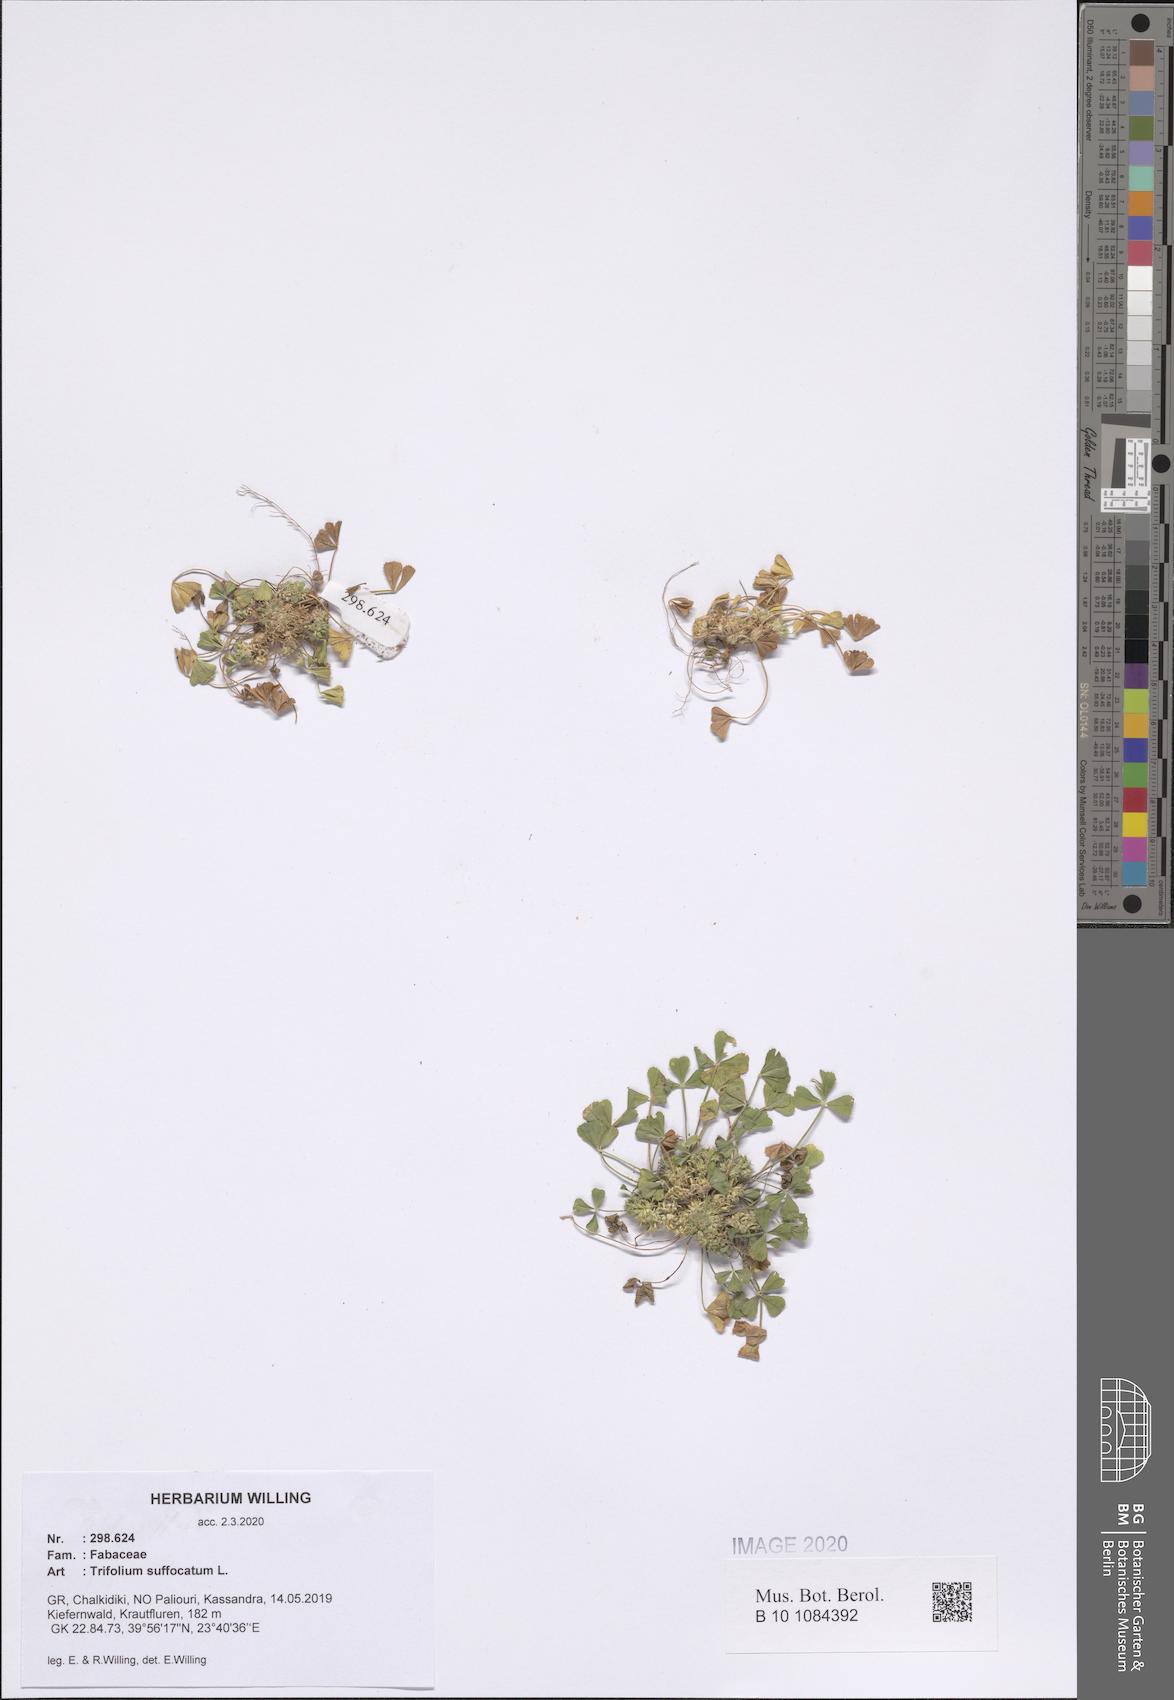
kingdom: Plantae
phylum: Tracheophyta
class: Magnoliopsida
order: Fabales
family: Fabaceae
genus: Trifolium
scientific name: Trifolium suffocatum
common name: Suffocated clover
